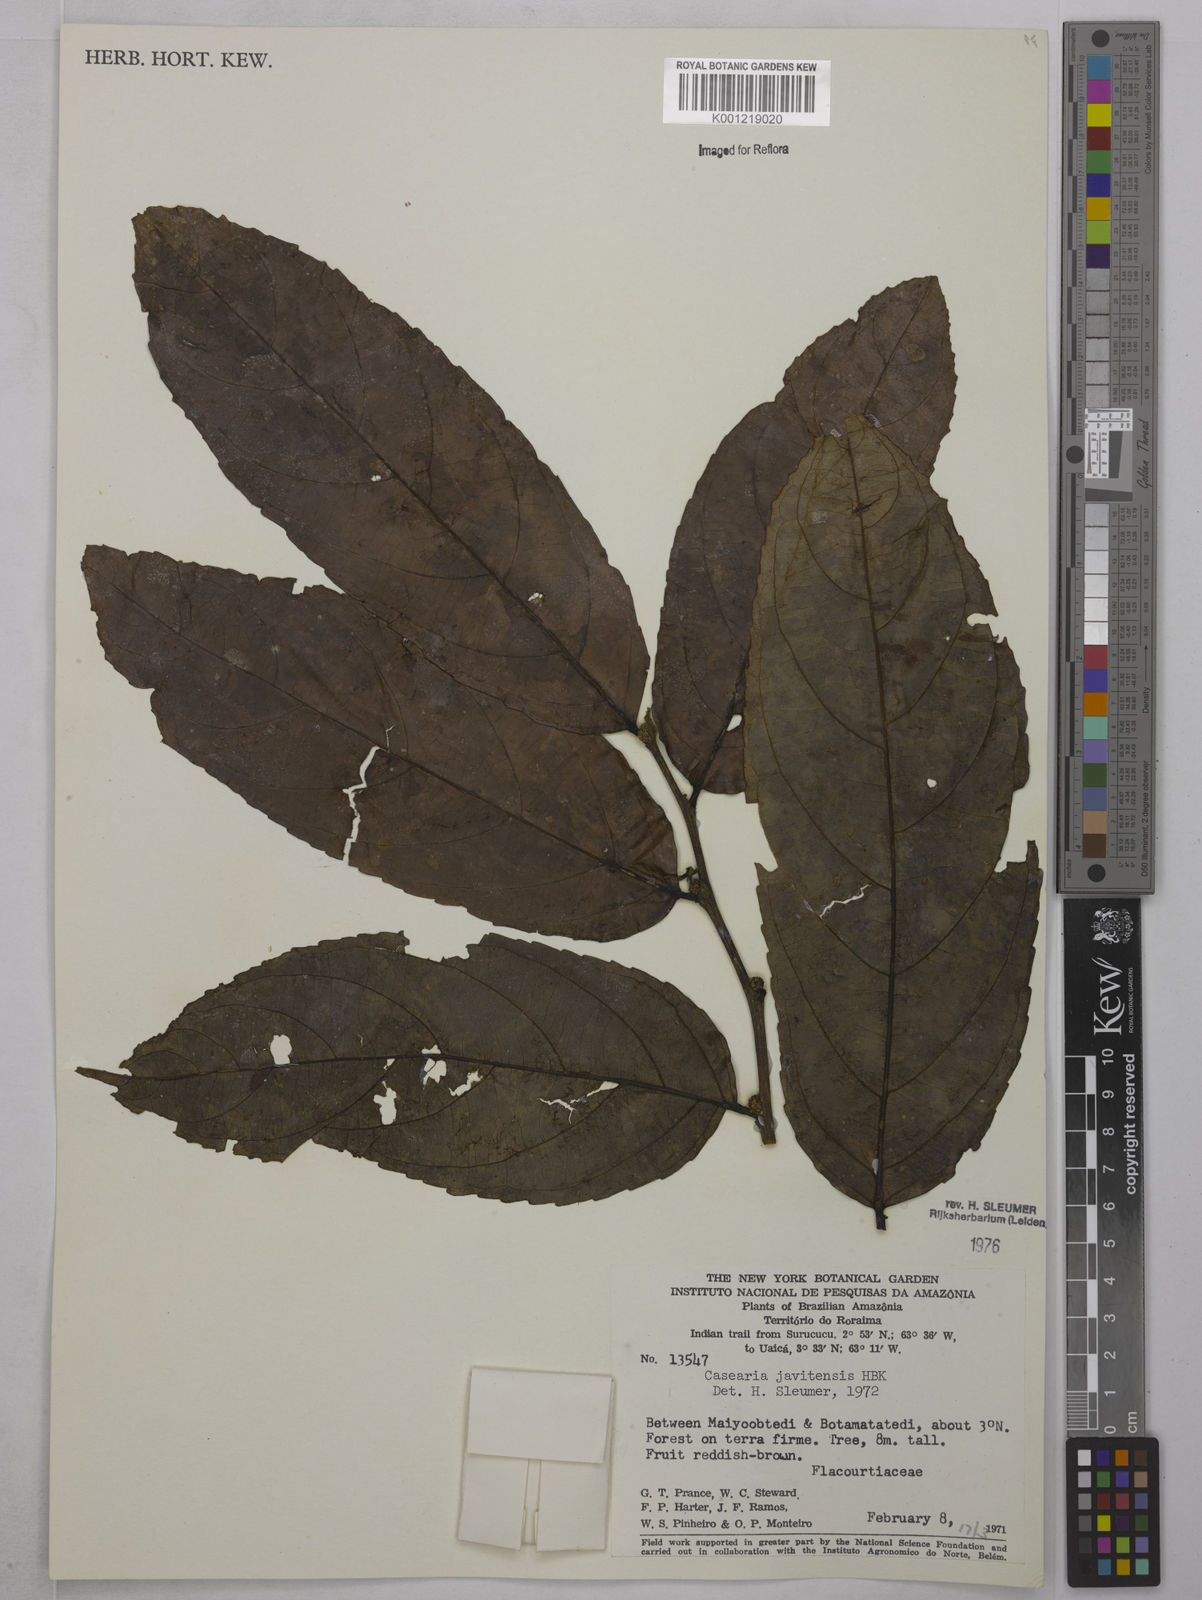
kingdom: Plantae
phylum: Tracheophyta
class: Magnoliopsida
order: Malpighiales
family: Salicaceae
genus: Piparea
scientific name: Piparea multiflora
